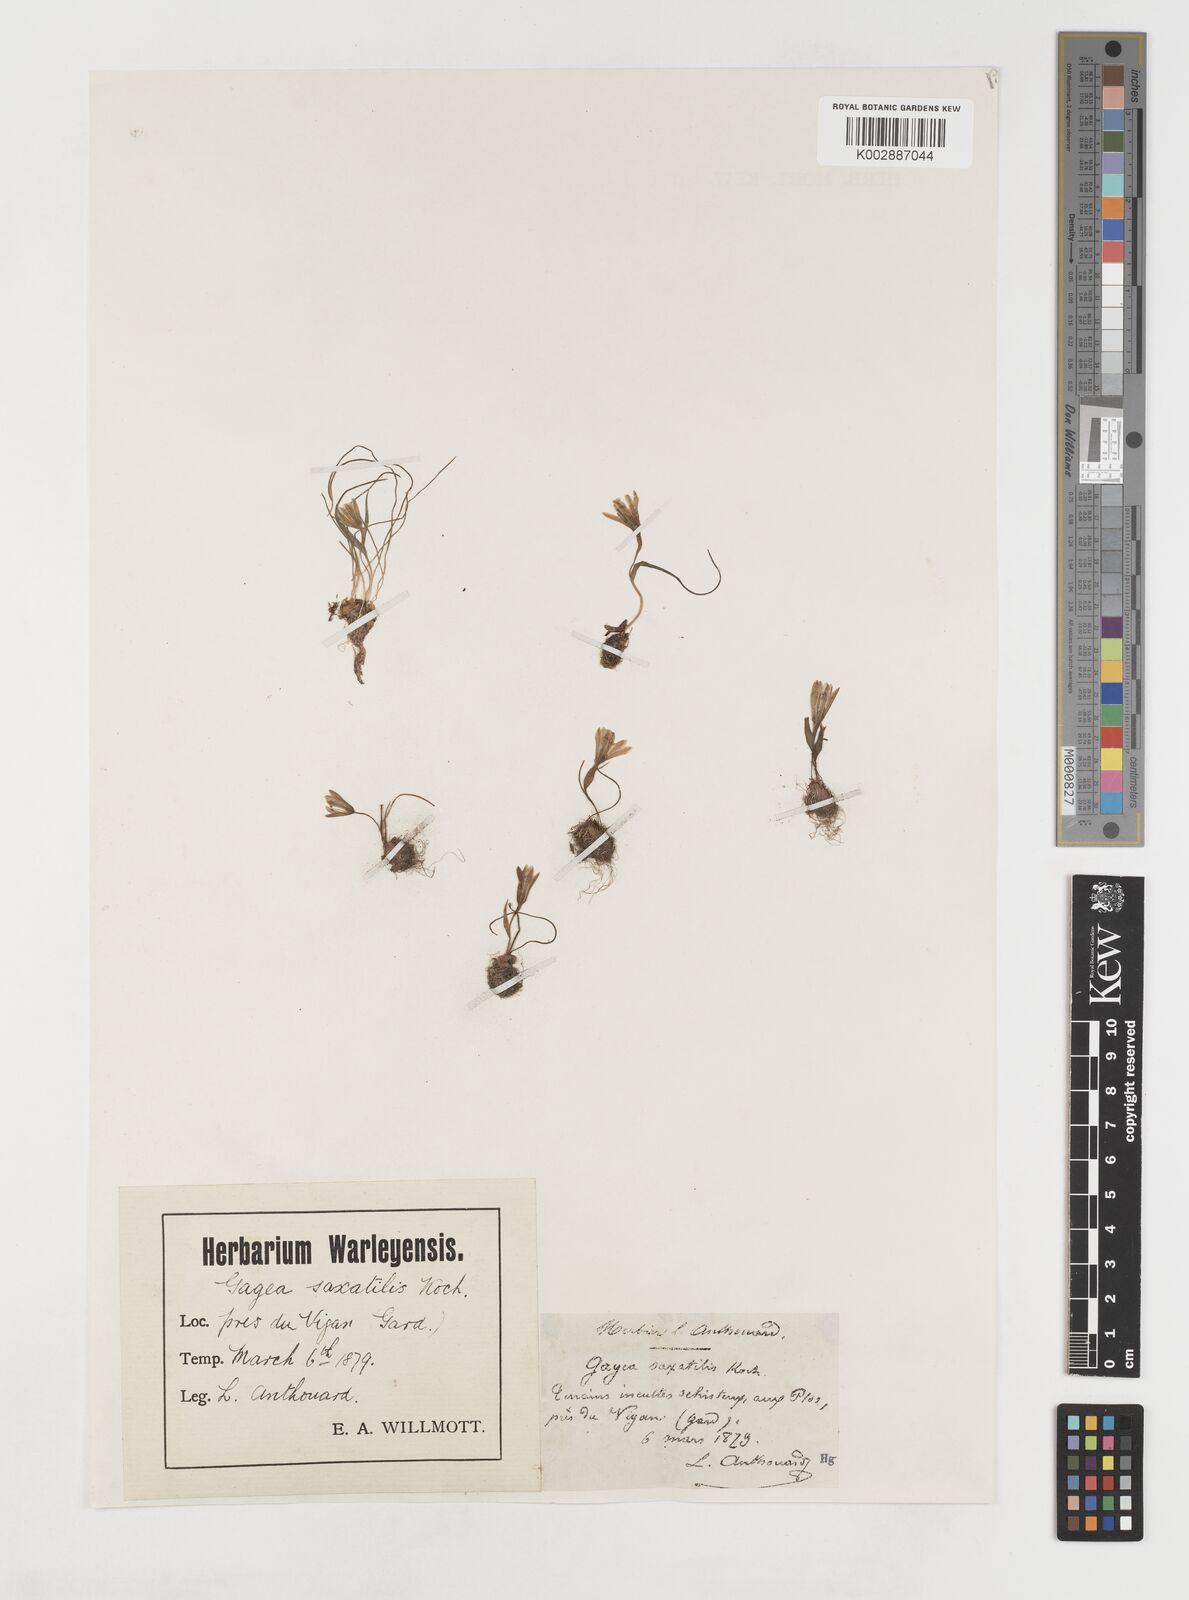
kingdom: Plantae
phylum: Tracheophyta
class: Liliopsida
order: Liliales
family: Liliaceae
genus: Gagea
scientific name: Gagea bohemica
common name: Early star-of-bethlehem
